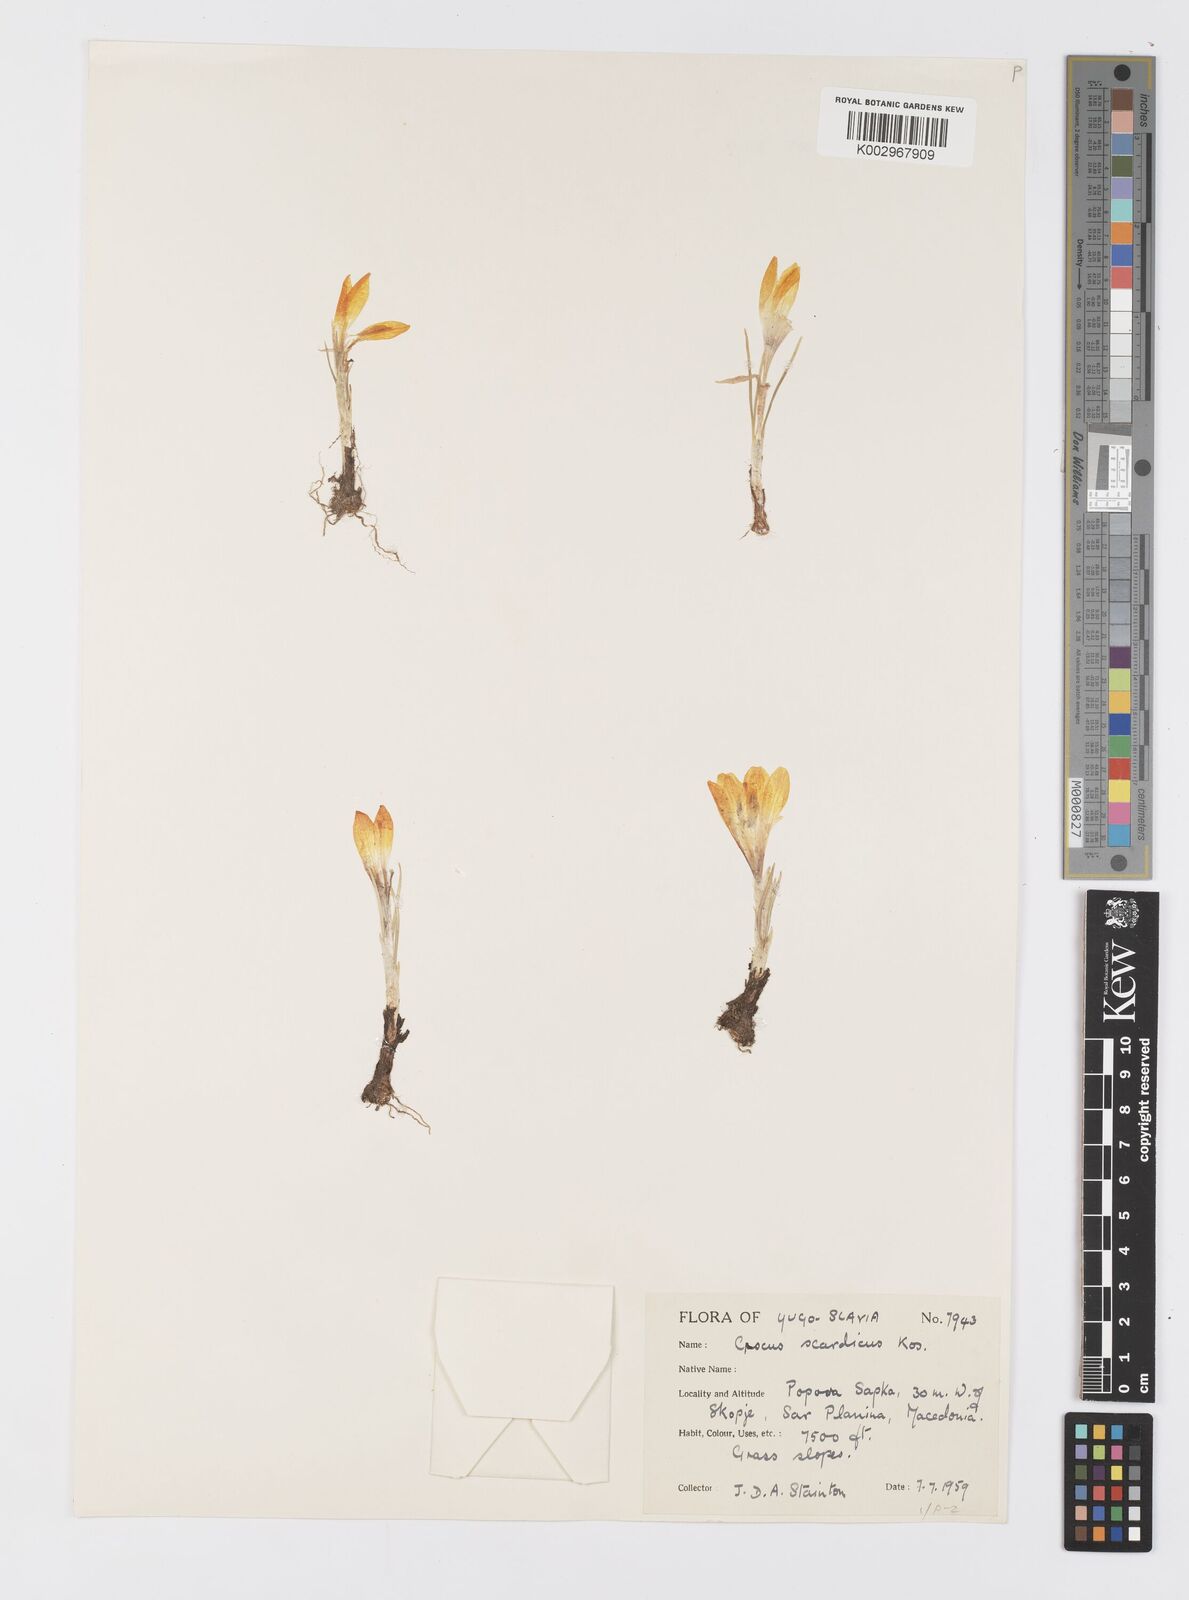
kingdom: Plantae
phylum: Tracheophyta
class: Liliopsida
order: Asparagales
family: Iridaceae
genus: Crocus
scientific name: Crocus scardicus
